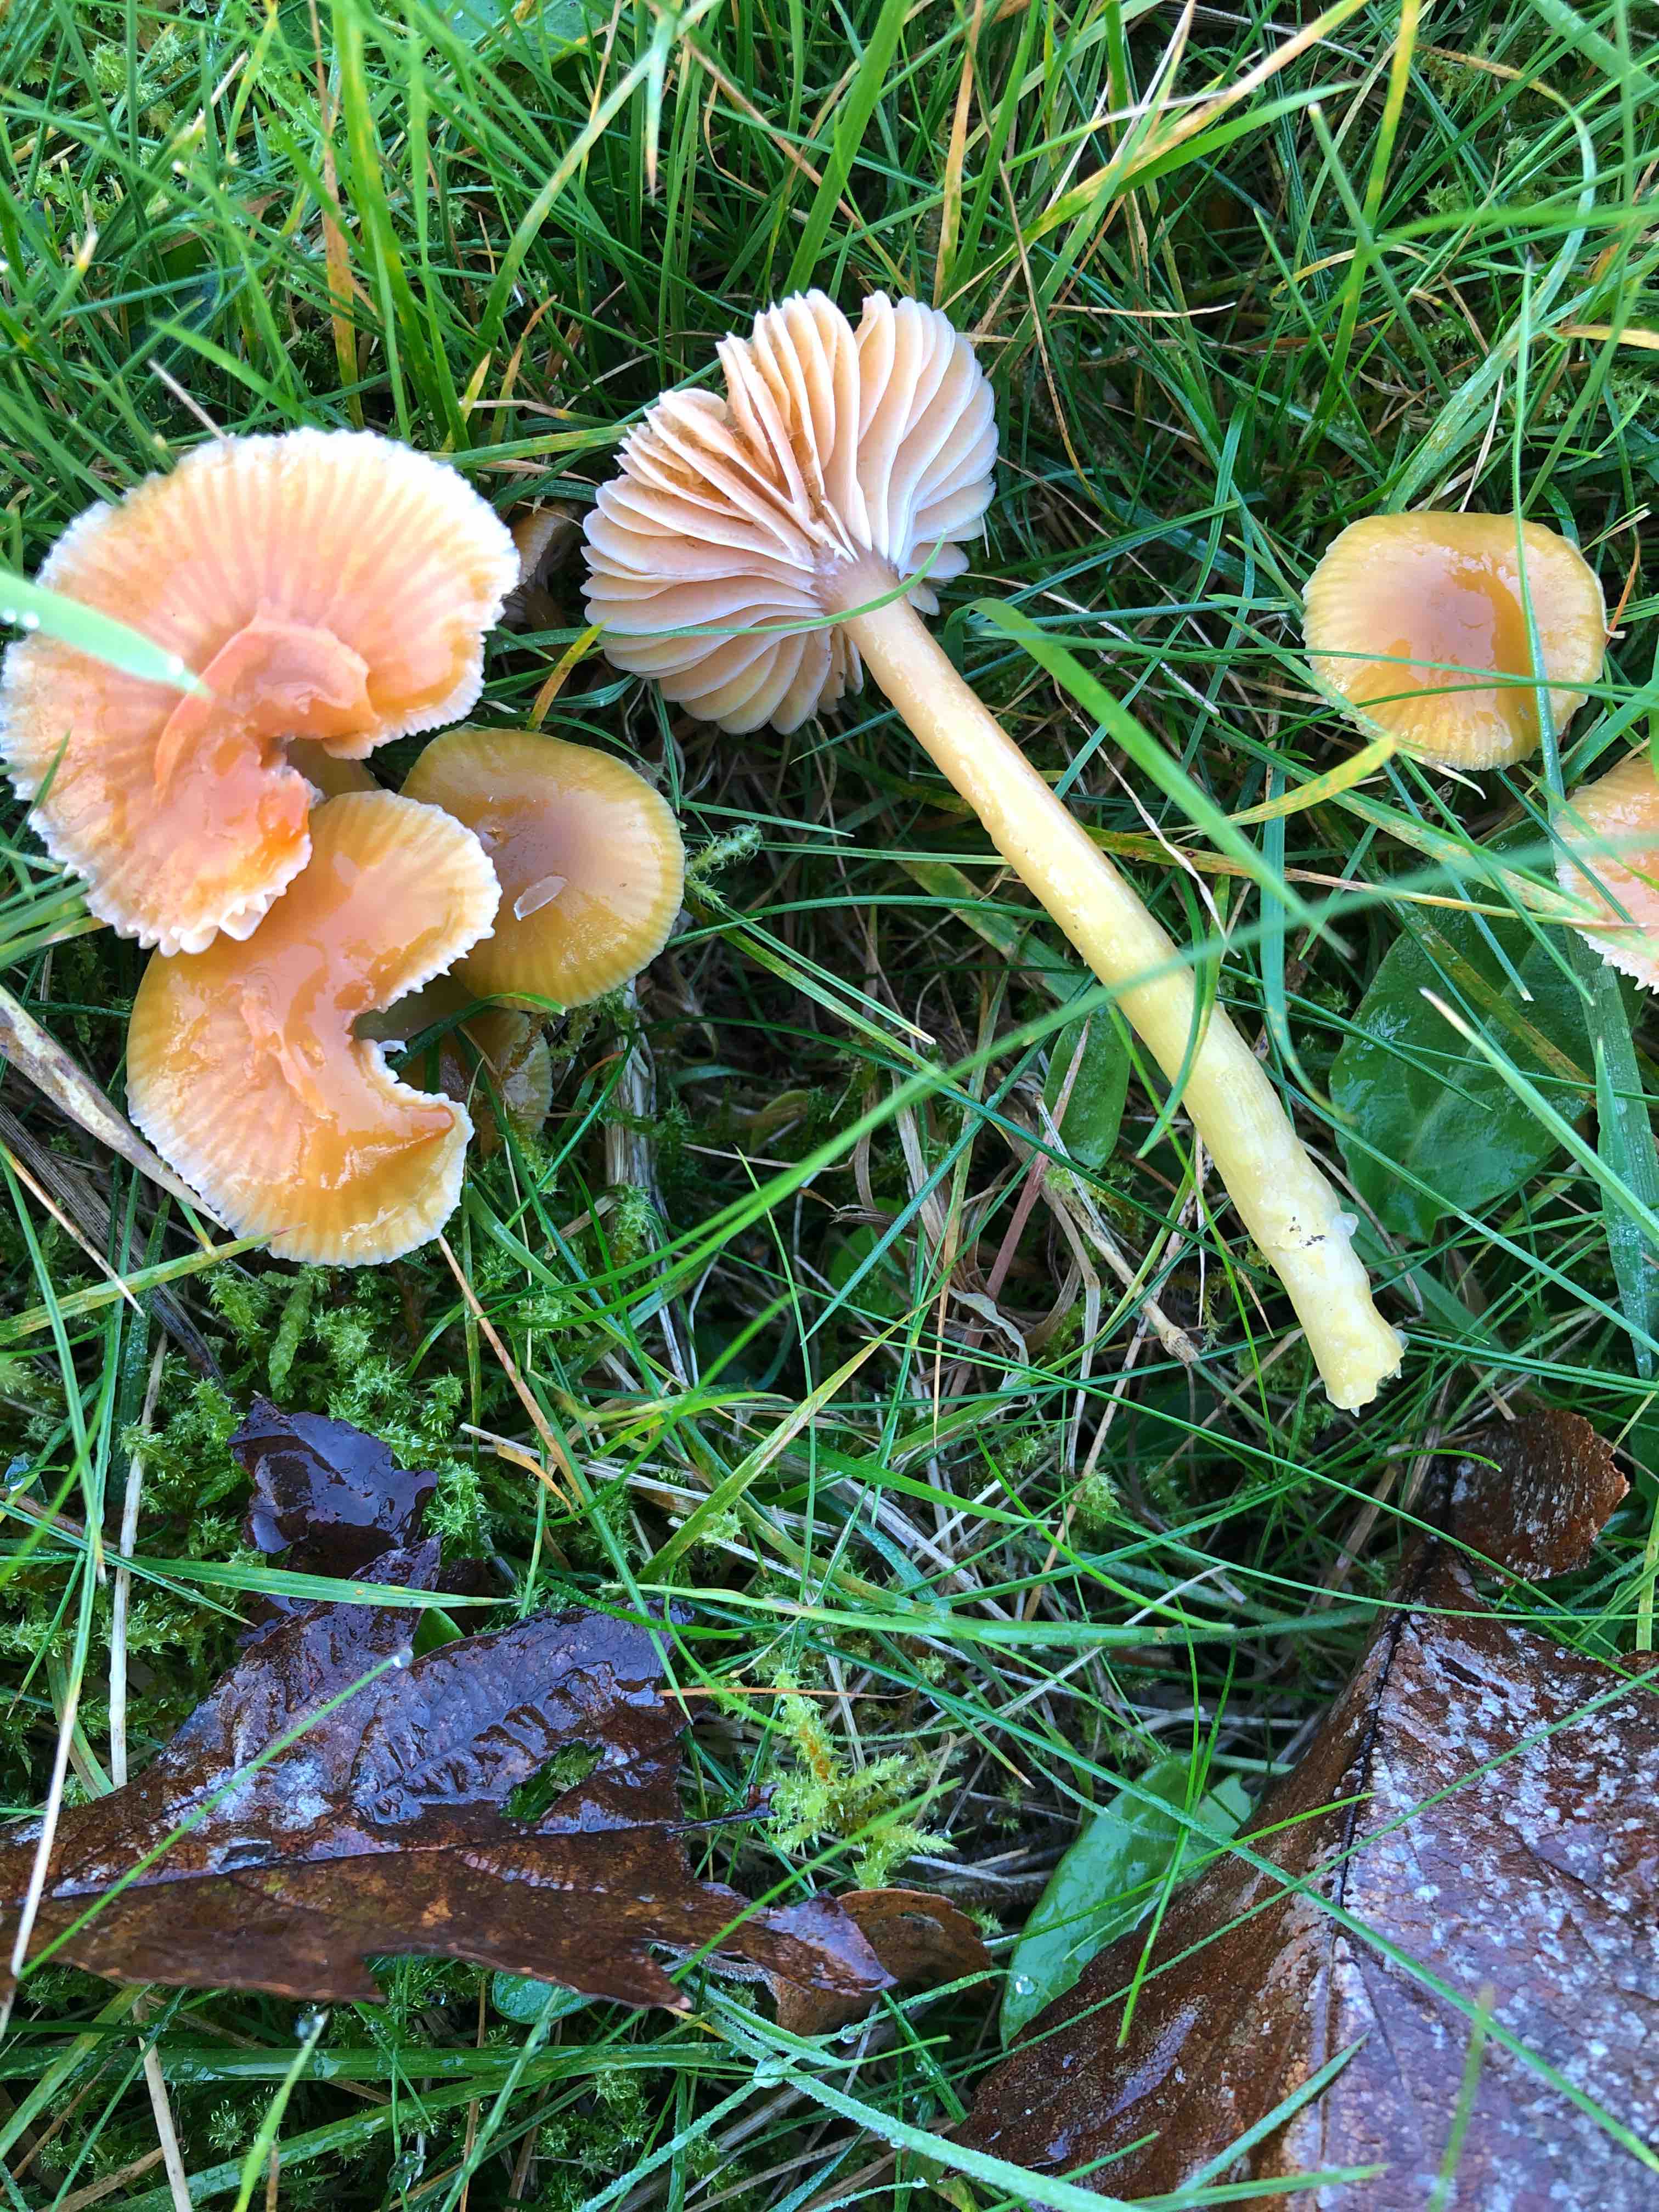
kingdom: Fungi
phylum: Basidiomycota
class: Agaricomycetes
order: Agaricales
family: Hygrophoraceae
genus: Gliophorus
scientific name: Gliophorus laetus
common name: brusk-vokshat
